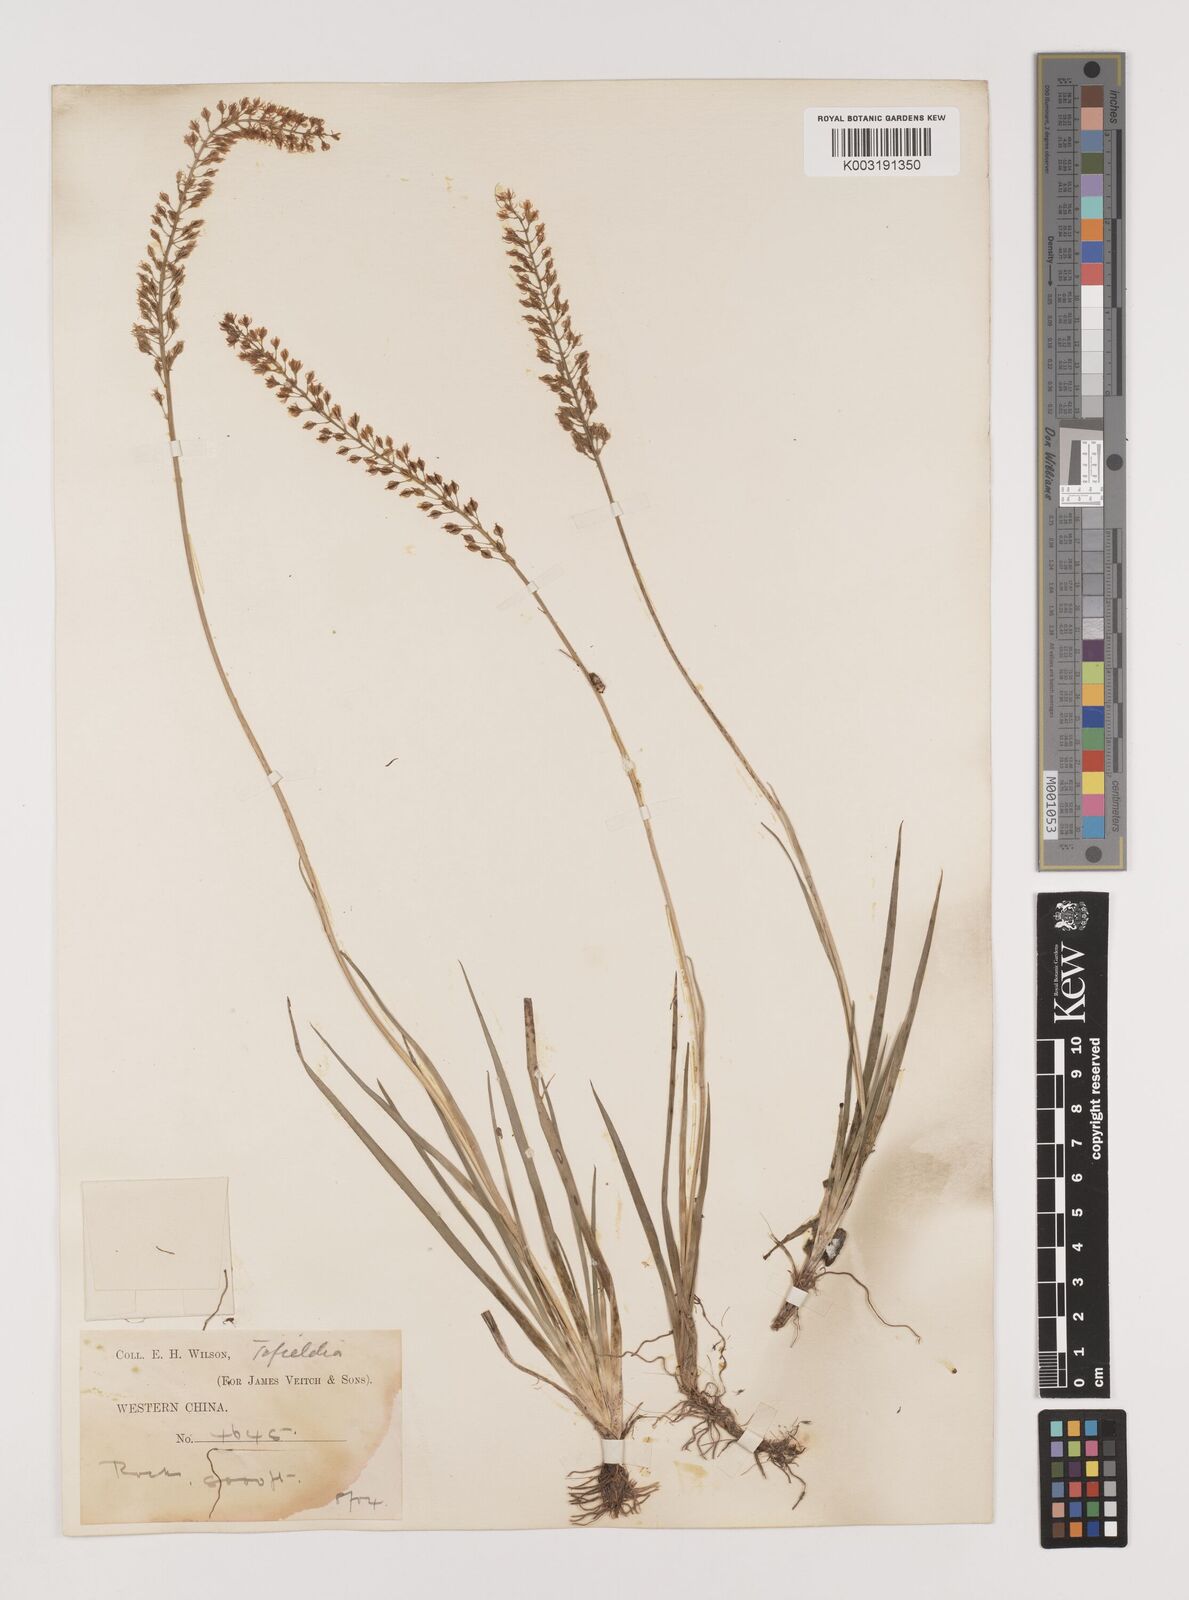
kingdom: Plantae
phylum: Tracheophyta
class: Liliopsida
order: Alismatales
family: Tofieldiaceae
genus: Tofieldia
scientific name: Tofieldia
